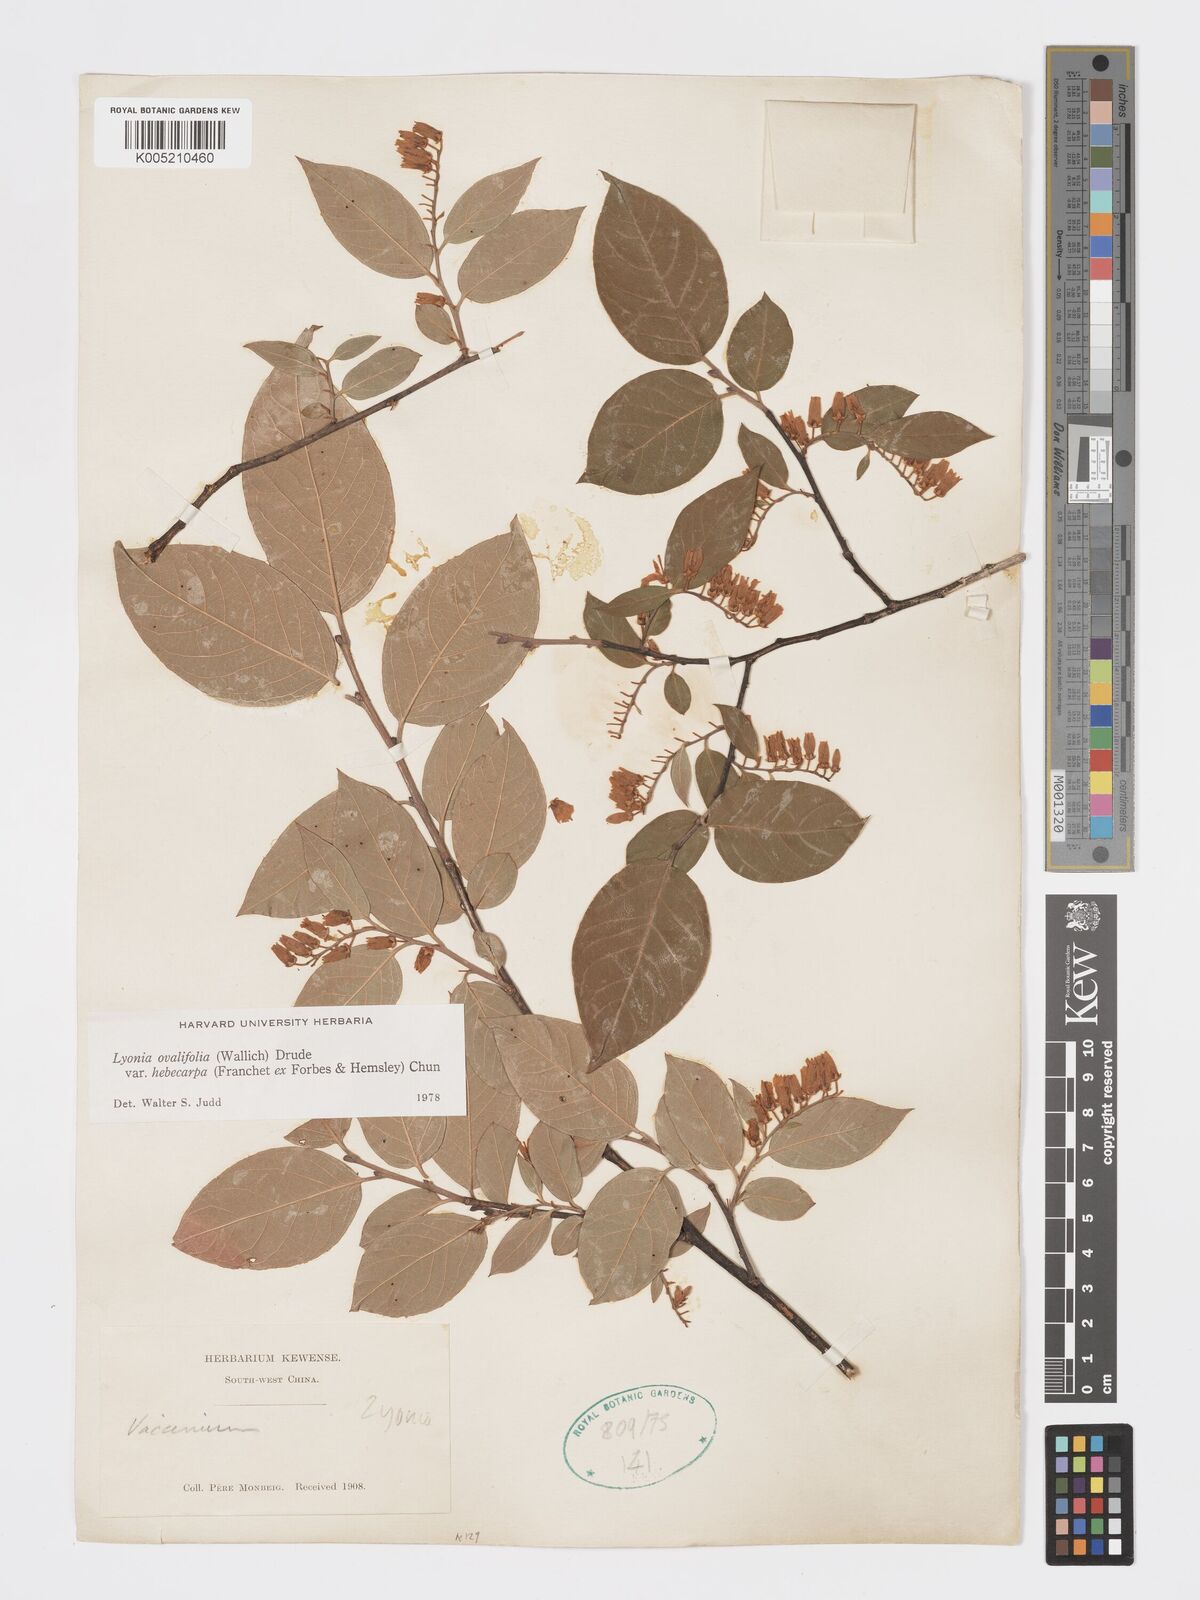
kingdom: Plantae
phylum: Tracheophyta
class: Magnoliopsida
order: Ericales
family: Ericaceae
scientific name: Ericaceae
